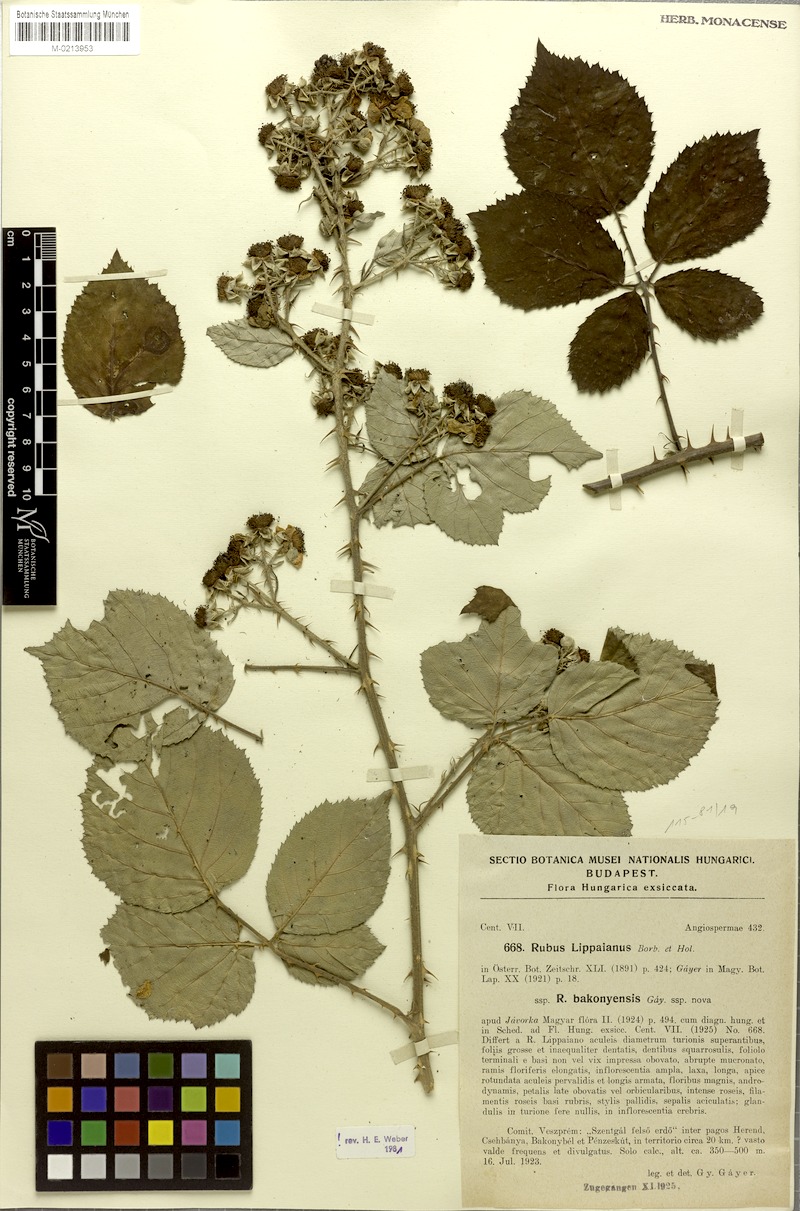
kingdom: Plantae
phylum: Tracheophyta
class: Magnoliopsida
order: Rosales
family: Rosaceae
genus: Rubus
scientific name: Rubus bakonyensis
